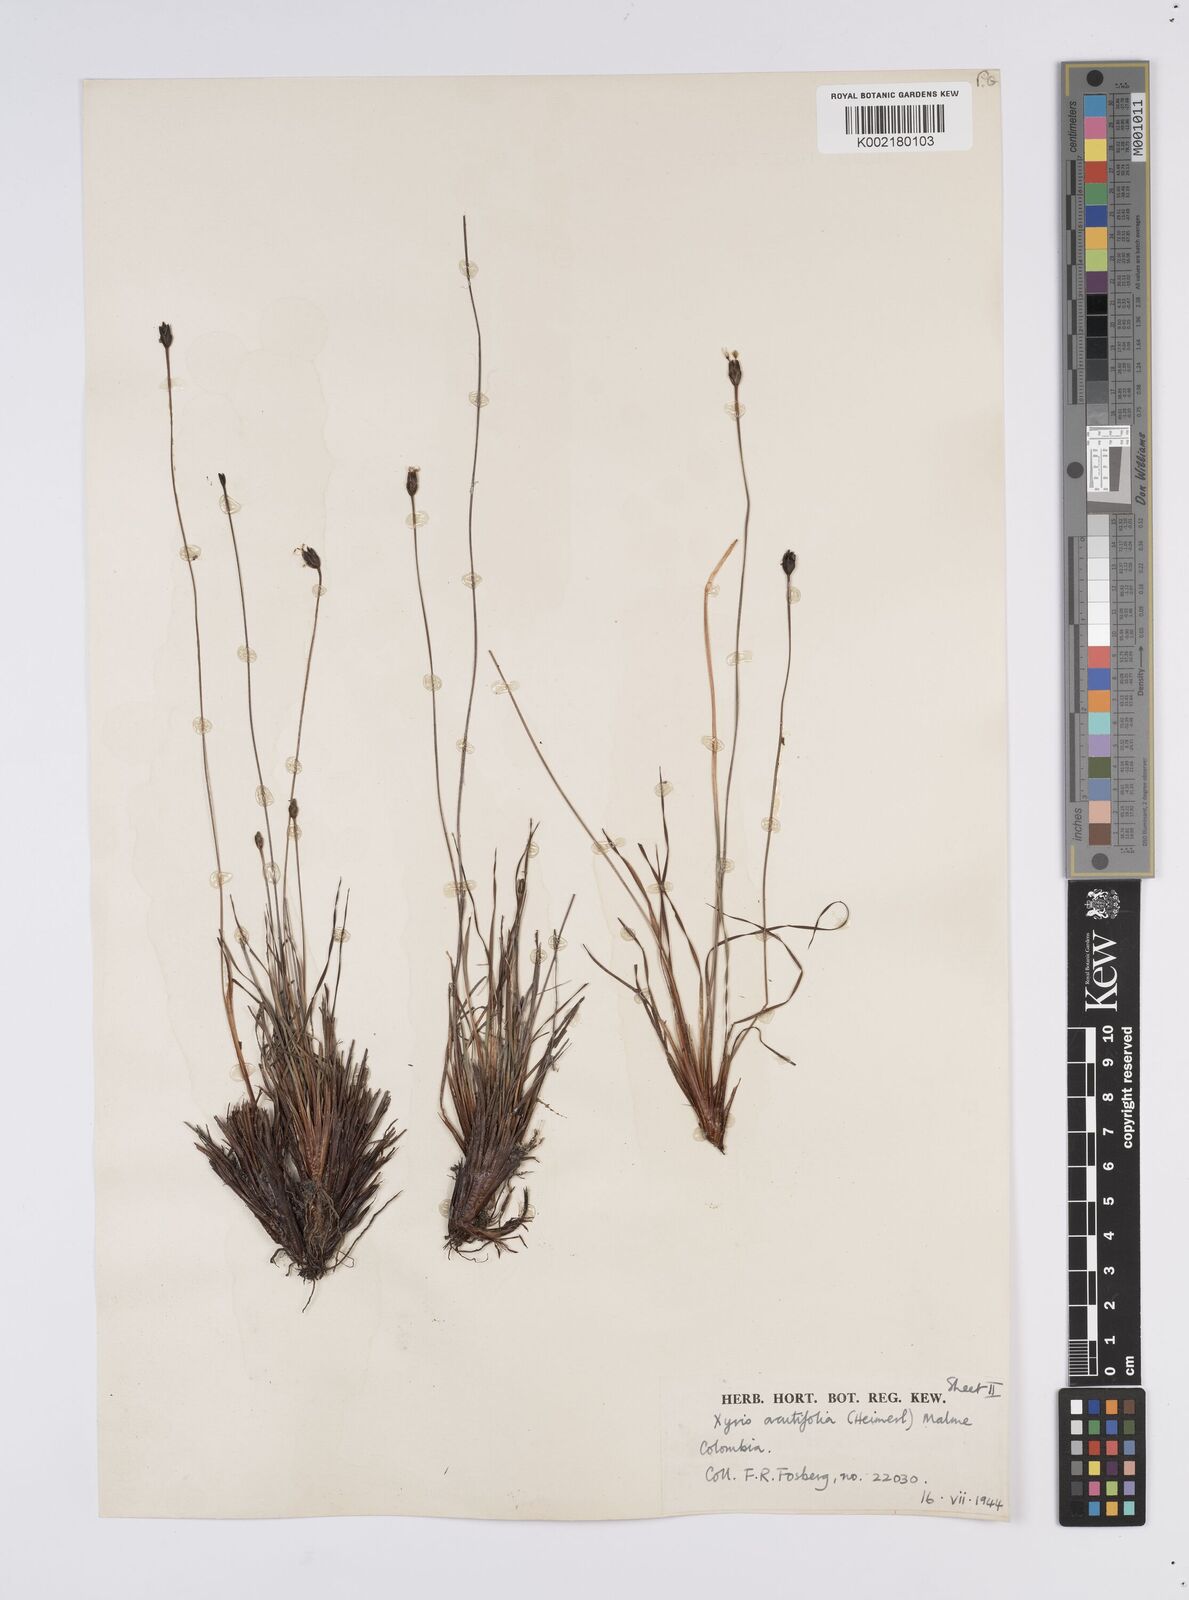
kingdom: Plantae
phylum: Tracheophyta
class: Liliopsida
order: Poales
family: Xyridaceae
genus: Xyris
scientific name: Xyris subulata
